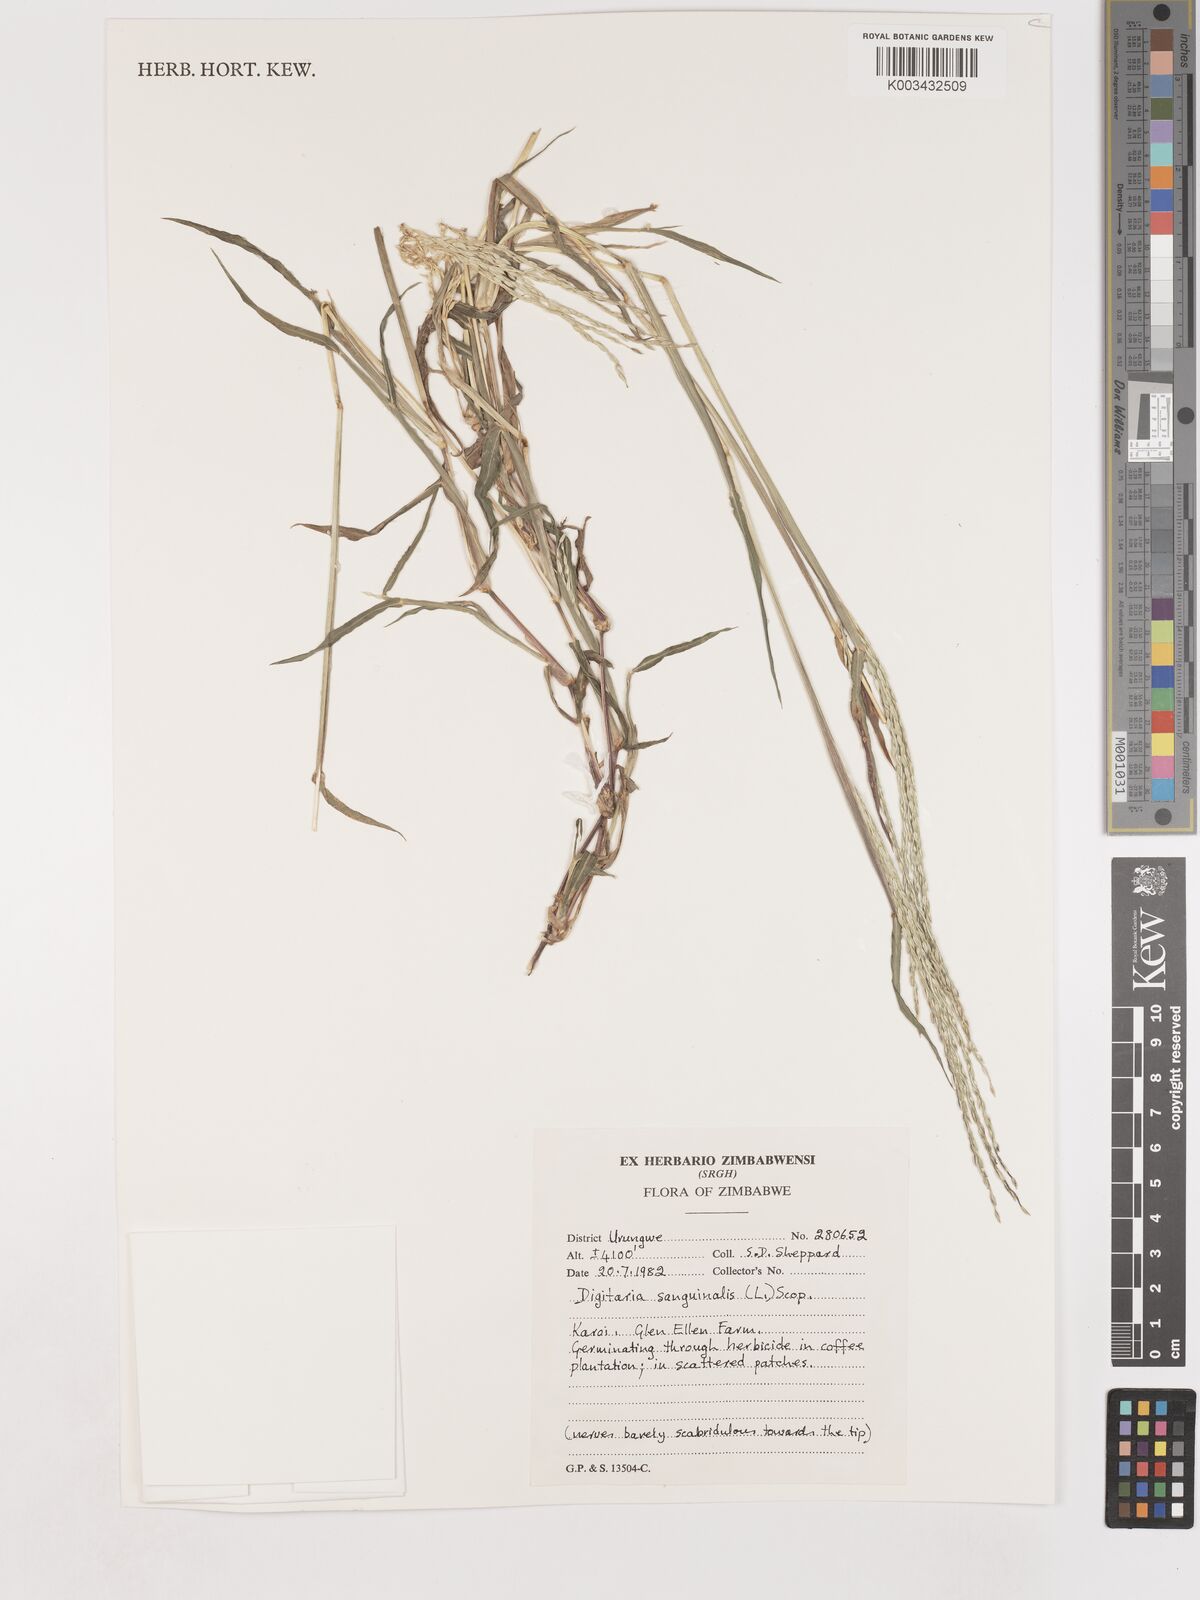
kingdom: Plantae
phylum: Tracheophyta
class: Liliopsida
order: Poales
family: Poaceae
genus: Digitaria
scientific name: Digitaria sanguinalis
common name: Hairy crabgrass
